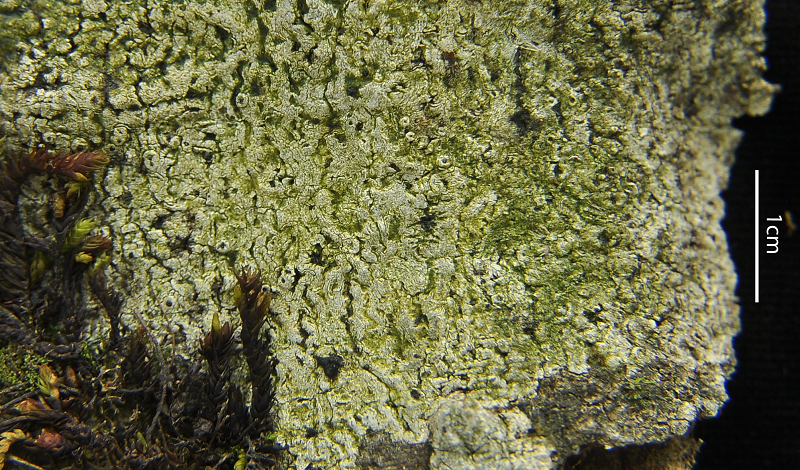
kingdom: Fungi
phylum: Ascomycota
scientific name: Ascomycota
